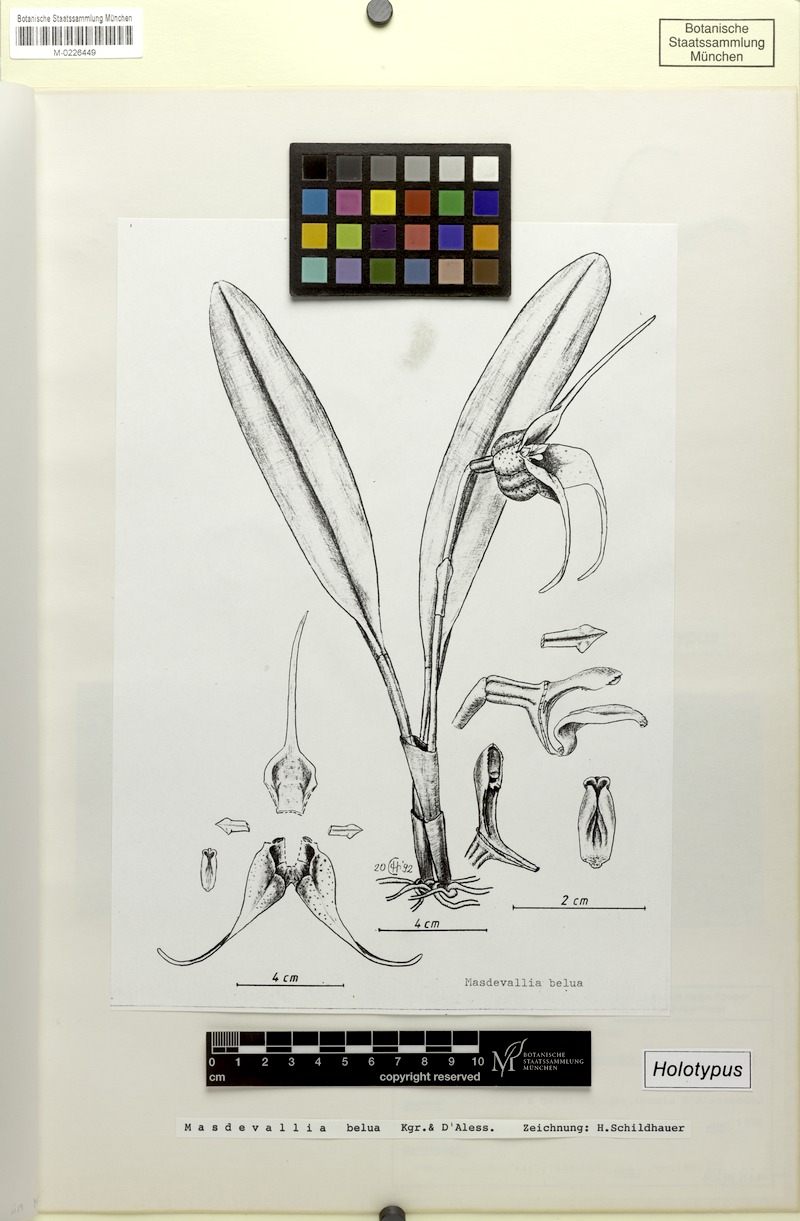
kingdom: Plantae
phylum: Tracheophyta
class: Liliopsida
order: Asparagales
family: Orchidaceae
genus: Masdevallia
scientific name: Masdevallia belua
